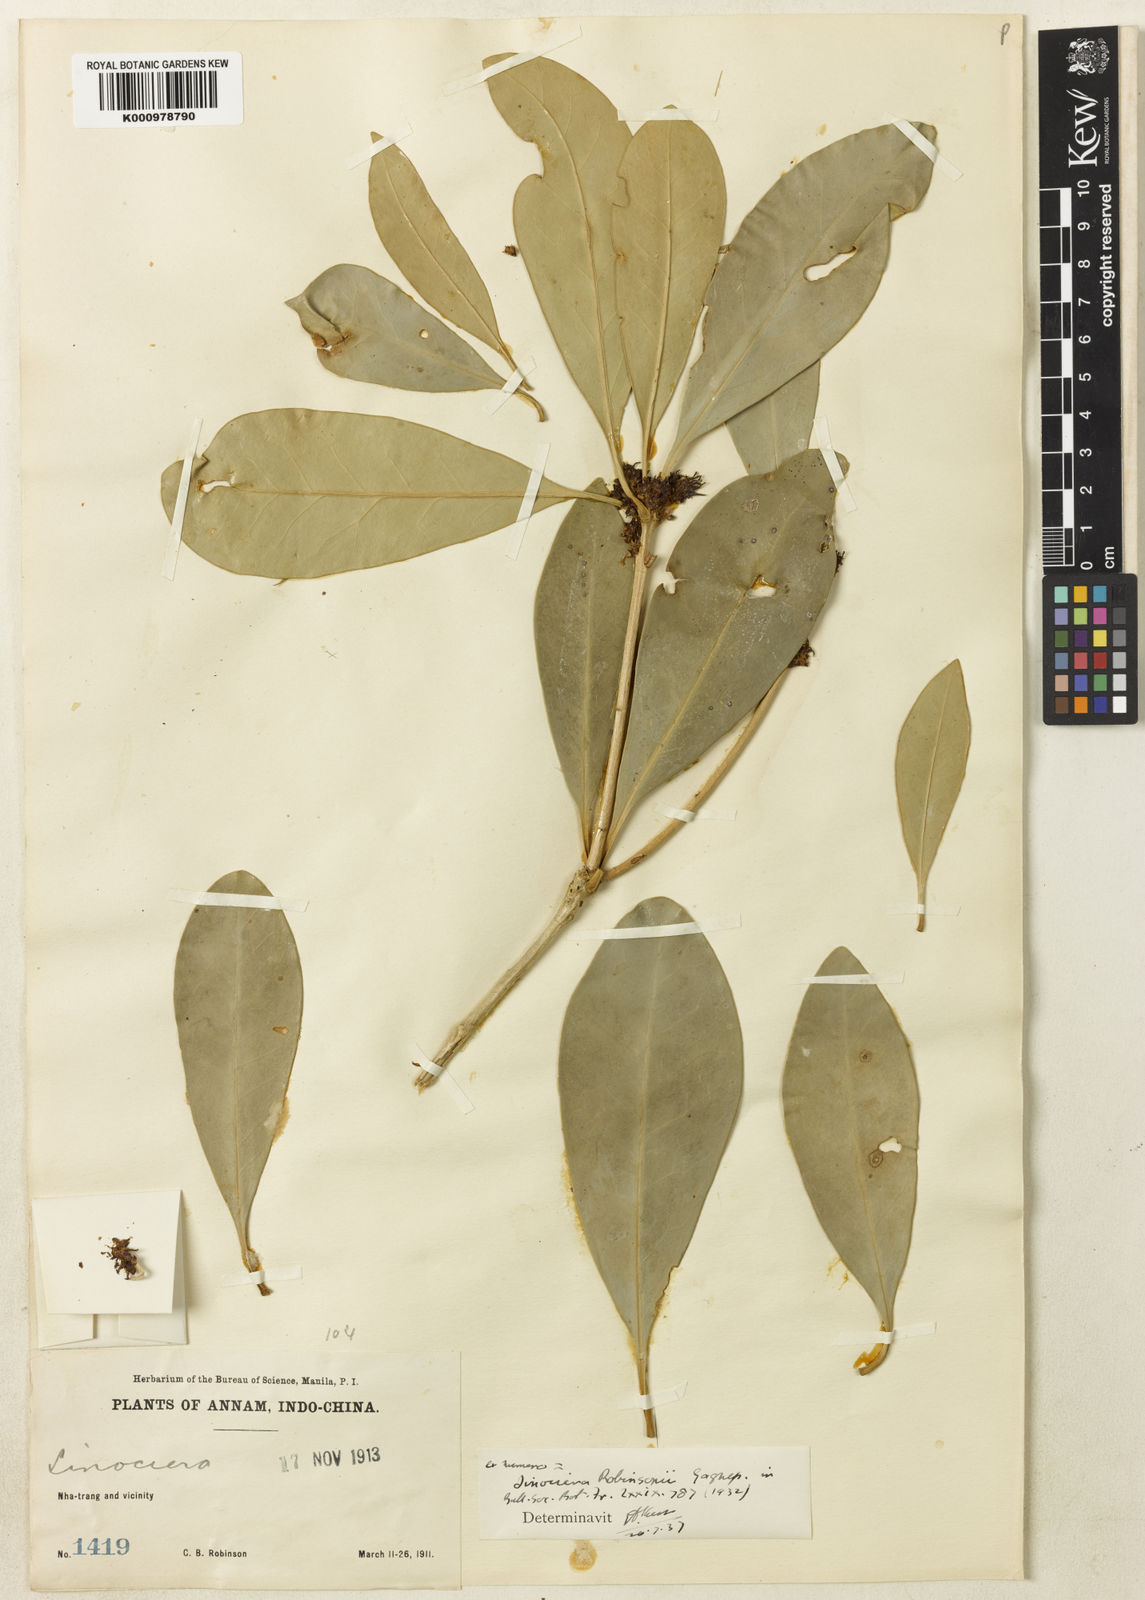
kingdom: Plantae
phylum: Tracheophyta
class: Magnoliopsida
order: Lamiales
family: Oleaceae
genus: Chionanthus
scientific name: Chionanthus robinsonii
